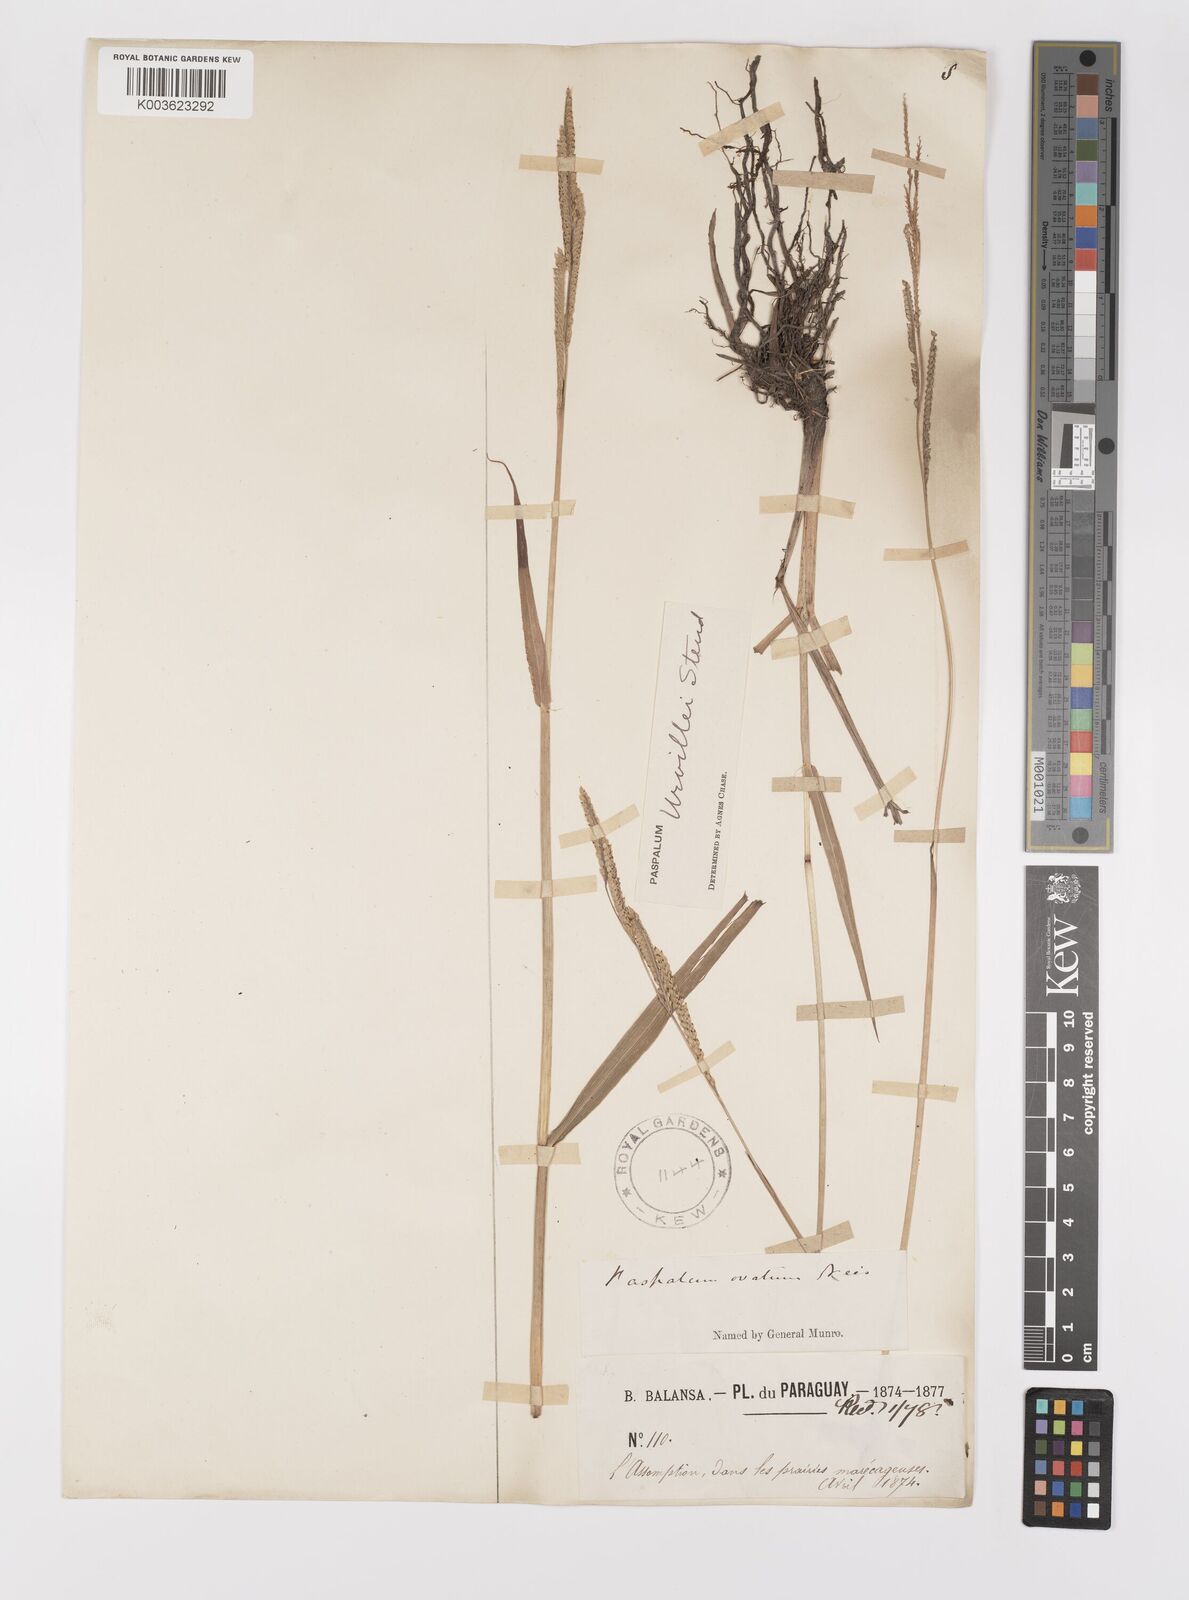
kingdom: Plantae
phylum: Tracheophyta
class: Liliopsida
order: Poales
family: Poaceae
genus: Paspalum
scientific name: Paspalum urvillei
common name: Vasey's grass
